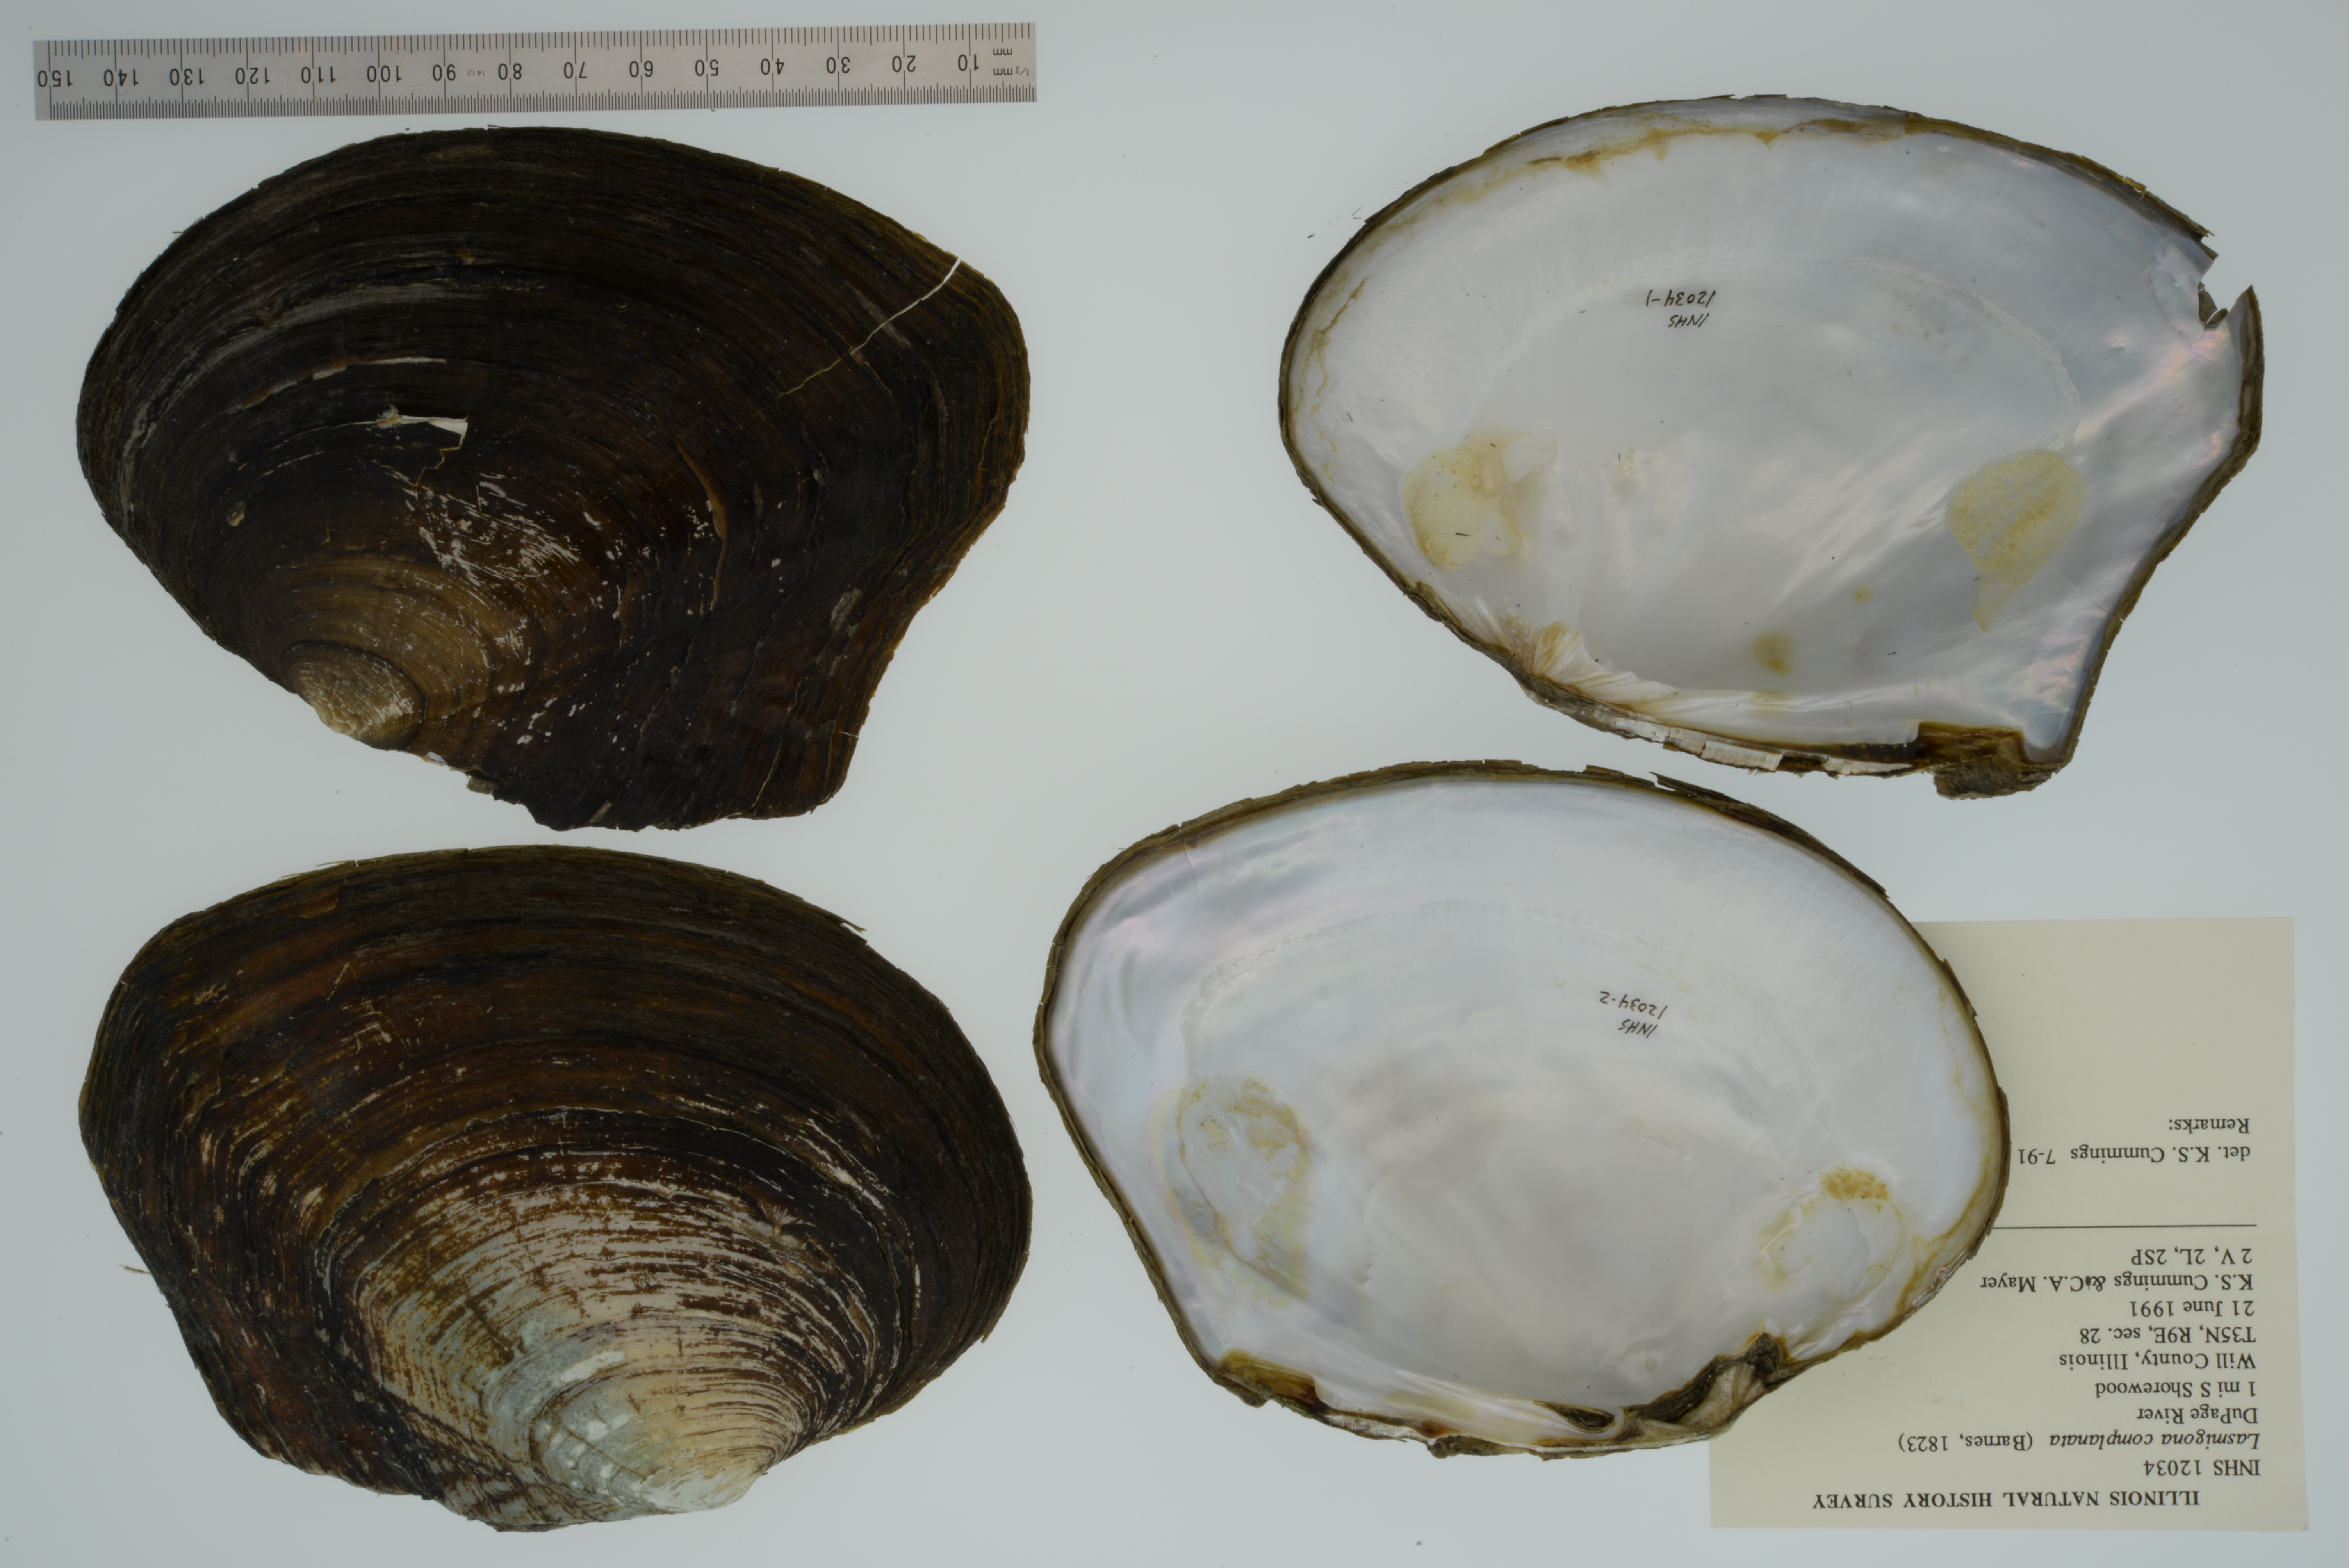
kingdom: Animalia
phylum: Mollusca
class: Bivalvia
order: Unionida
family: Unionidae
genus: Lasmigona
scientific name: Lasmigona complanata
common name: White heelsplitter
